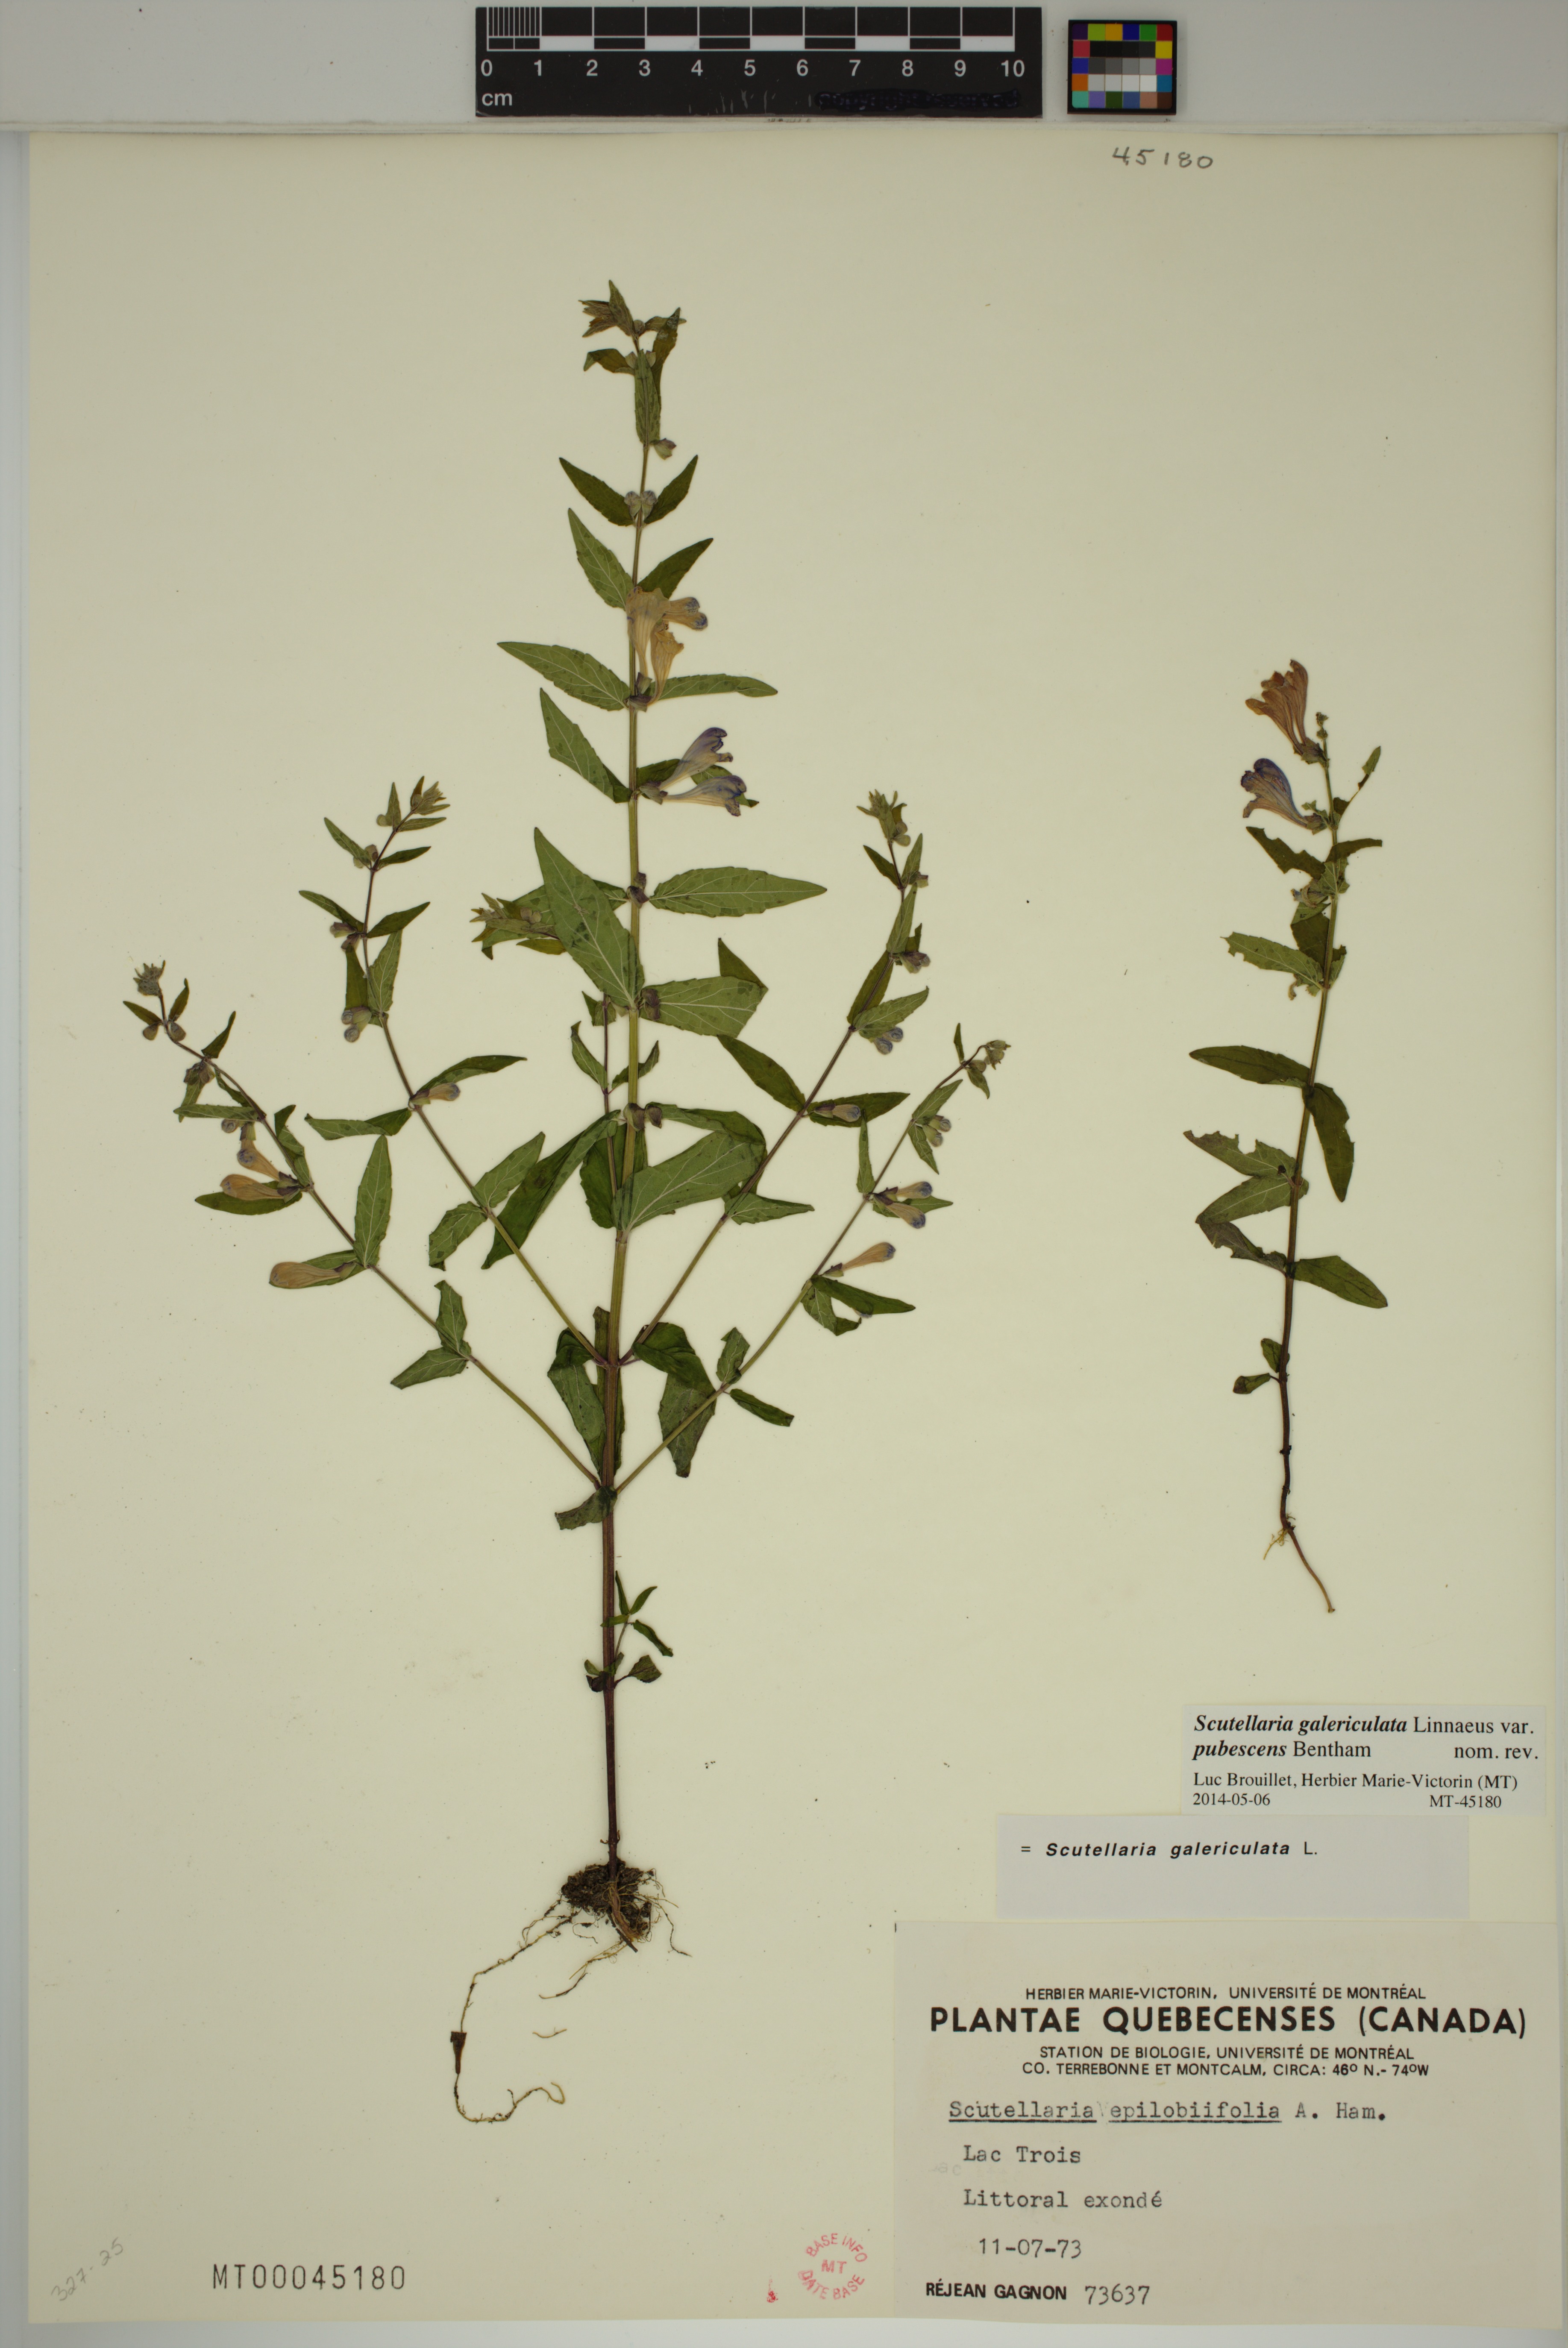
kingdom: Plantae
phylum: Tracheophyta
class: Magnoliopsida
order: Lamiales
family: Lamiaceae
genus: Scutellaria
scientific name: Scutellaria nicholsonii
